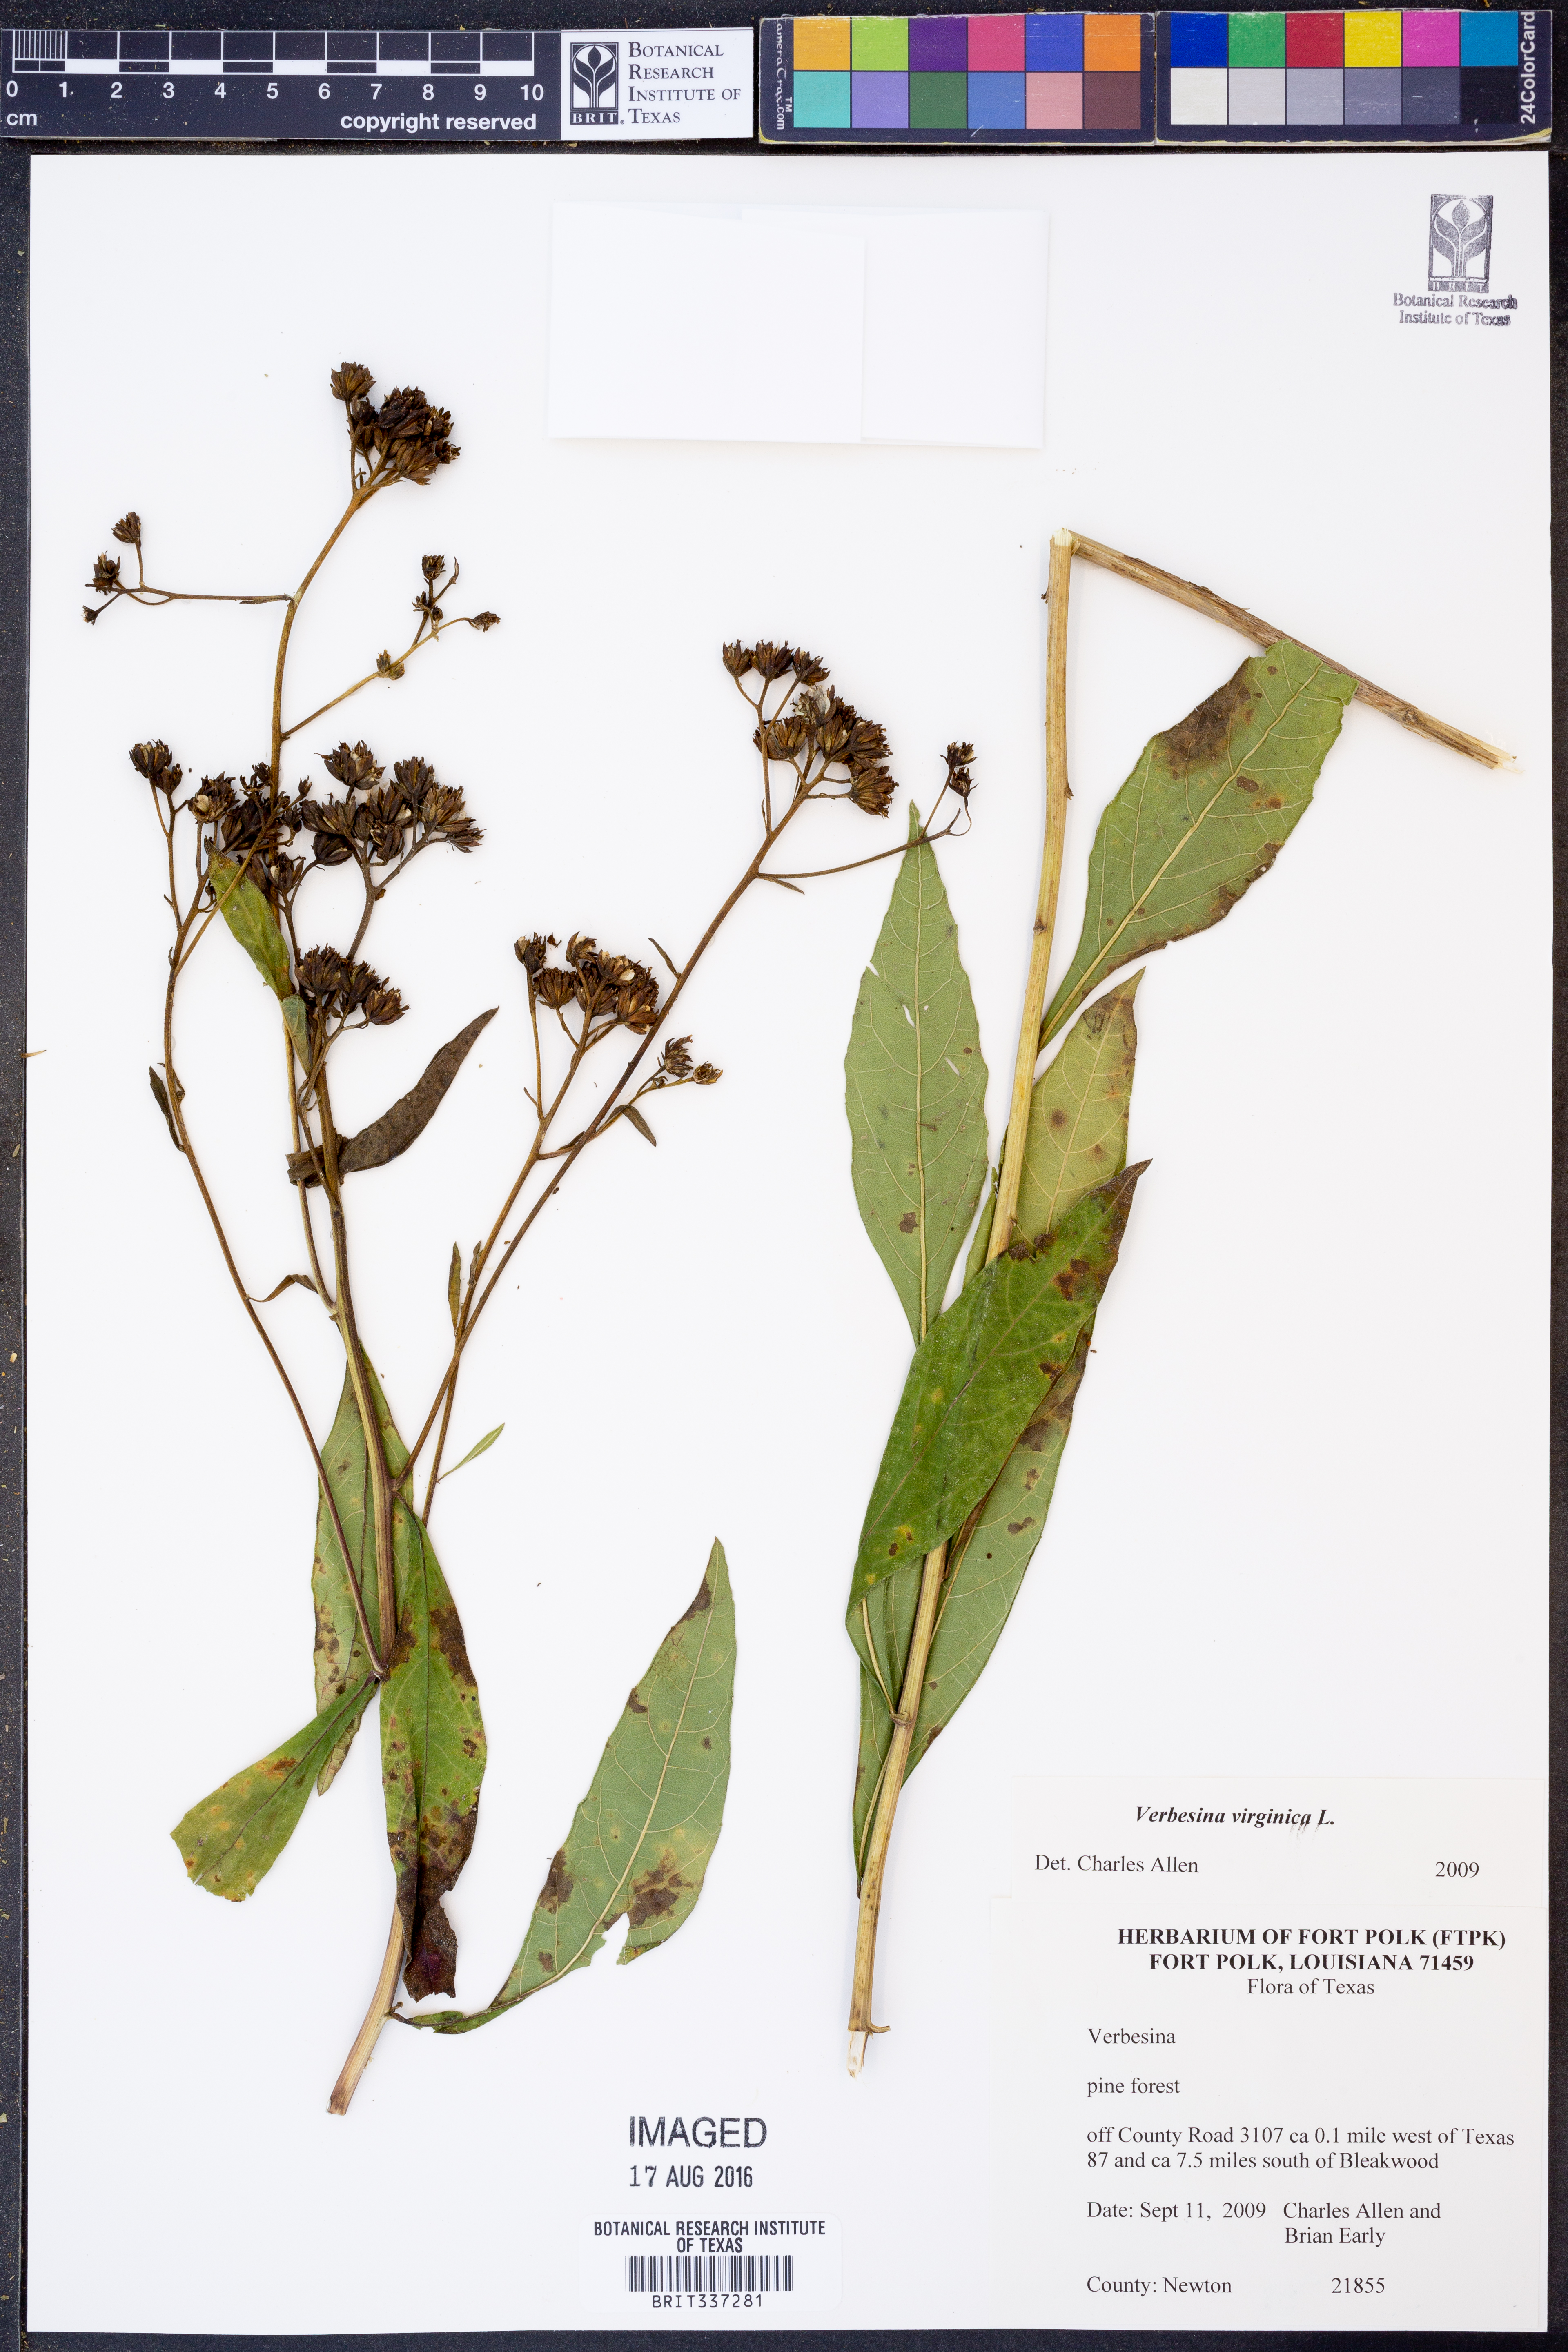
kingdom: Plantae
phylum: Tracheophyta
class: Magnoliopsida
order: Asterales
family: Asteraceae
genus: Verbesina
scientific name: Verbesina virginica
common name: Frostweed
